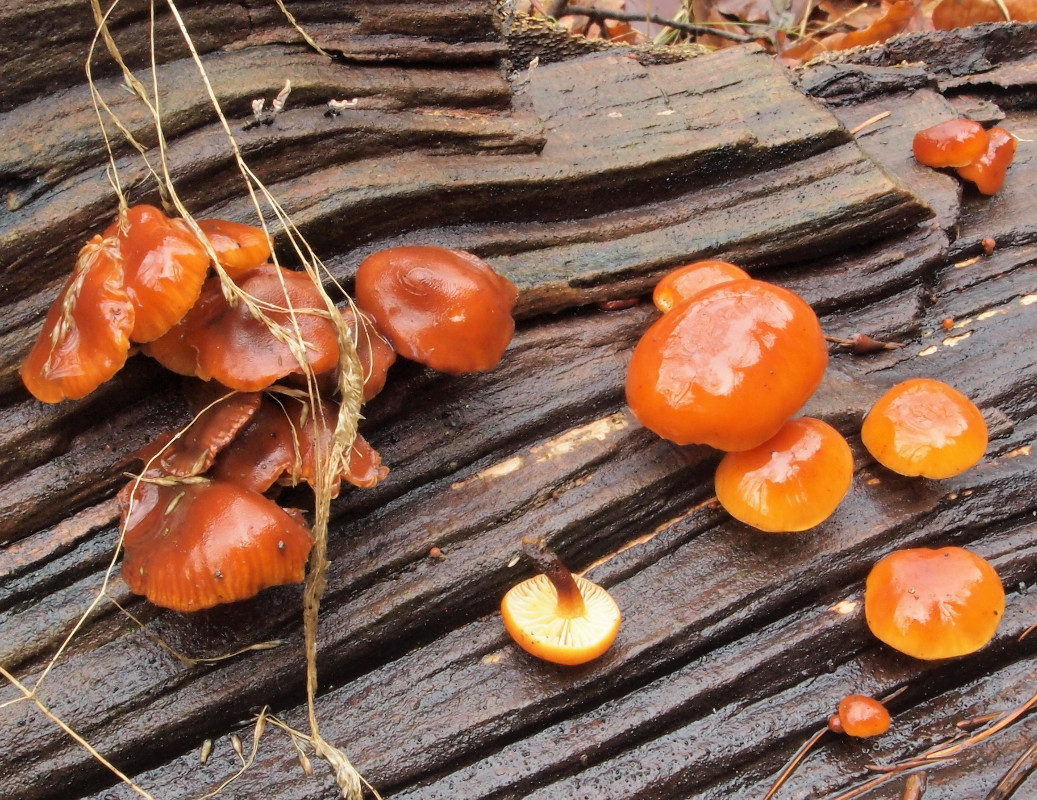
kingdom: Fungi
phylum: Basidiomycota
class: Agaricomycetes
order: Agaricales
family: Physalacriaceae
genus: Flammulina
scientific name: Flammulina velutipes
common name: gul fløjlsfod
